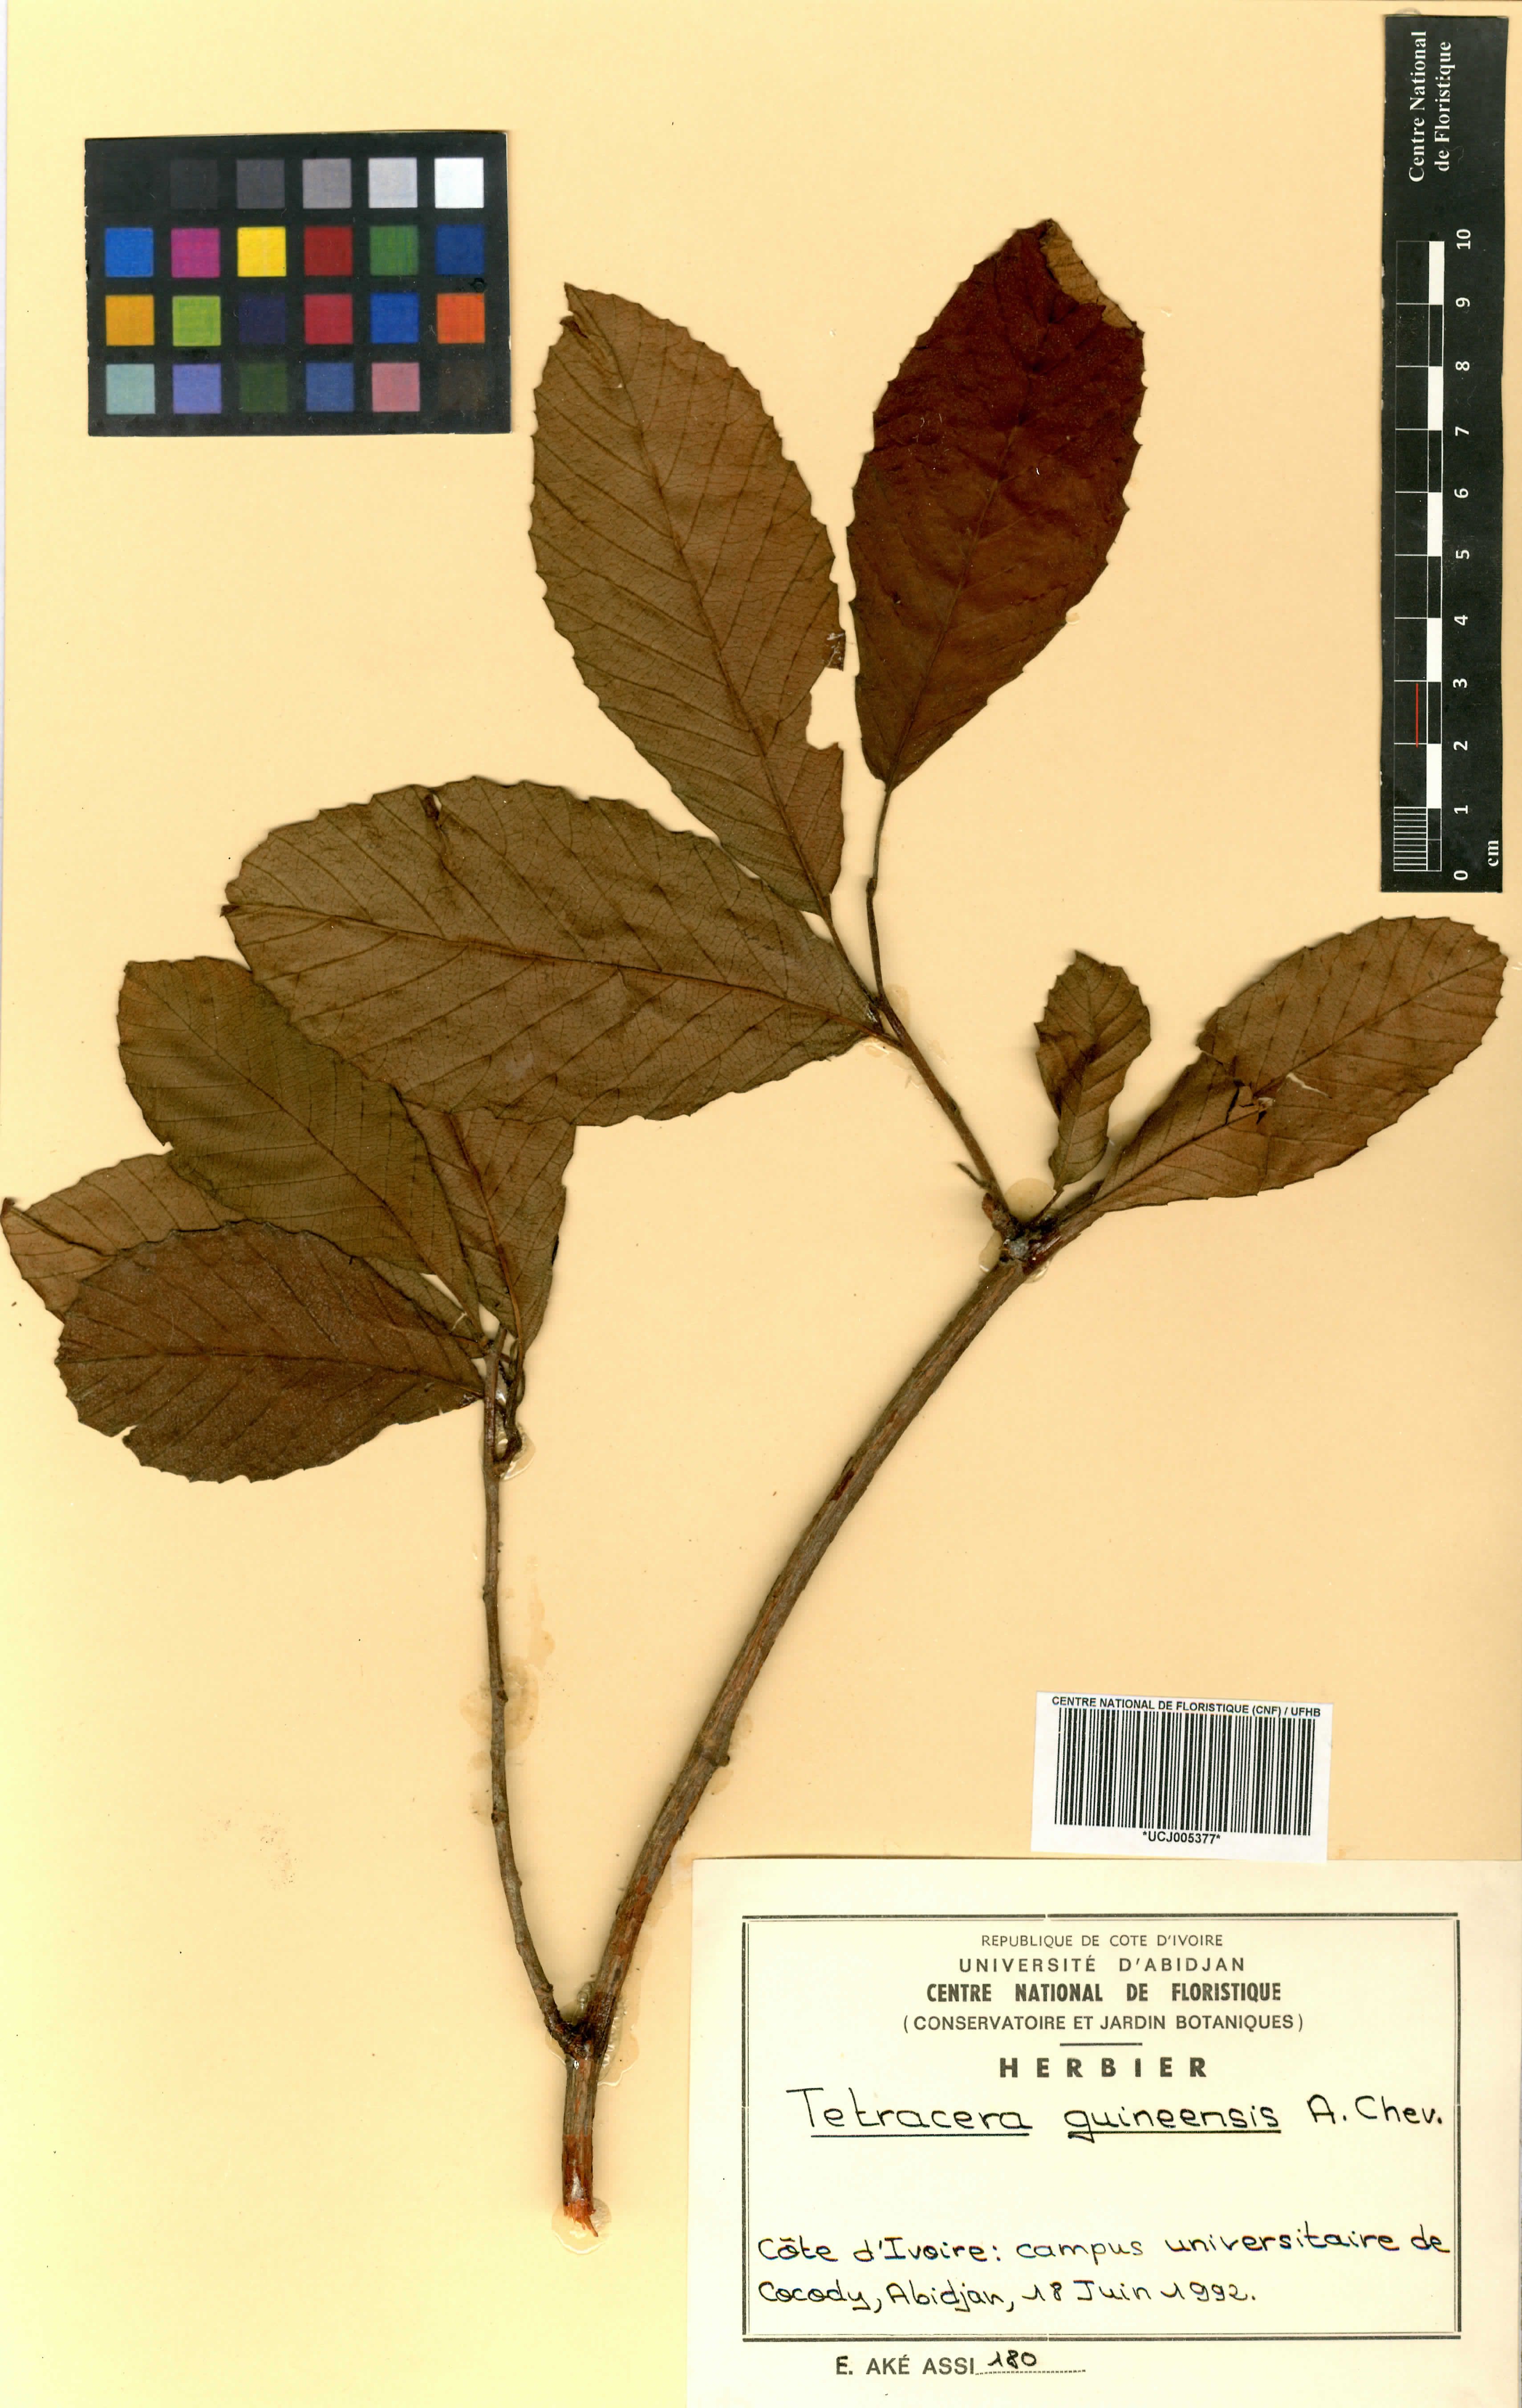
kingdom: Plantae
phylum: Tracheophyta
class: Magnoliopsida
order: Dilleniales
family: Dilleniaceae
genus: Tetracera
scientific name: Tetracera alnifolia
